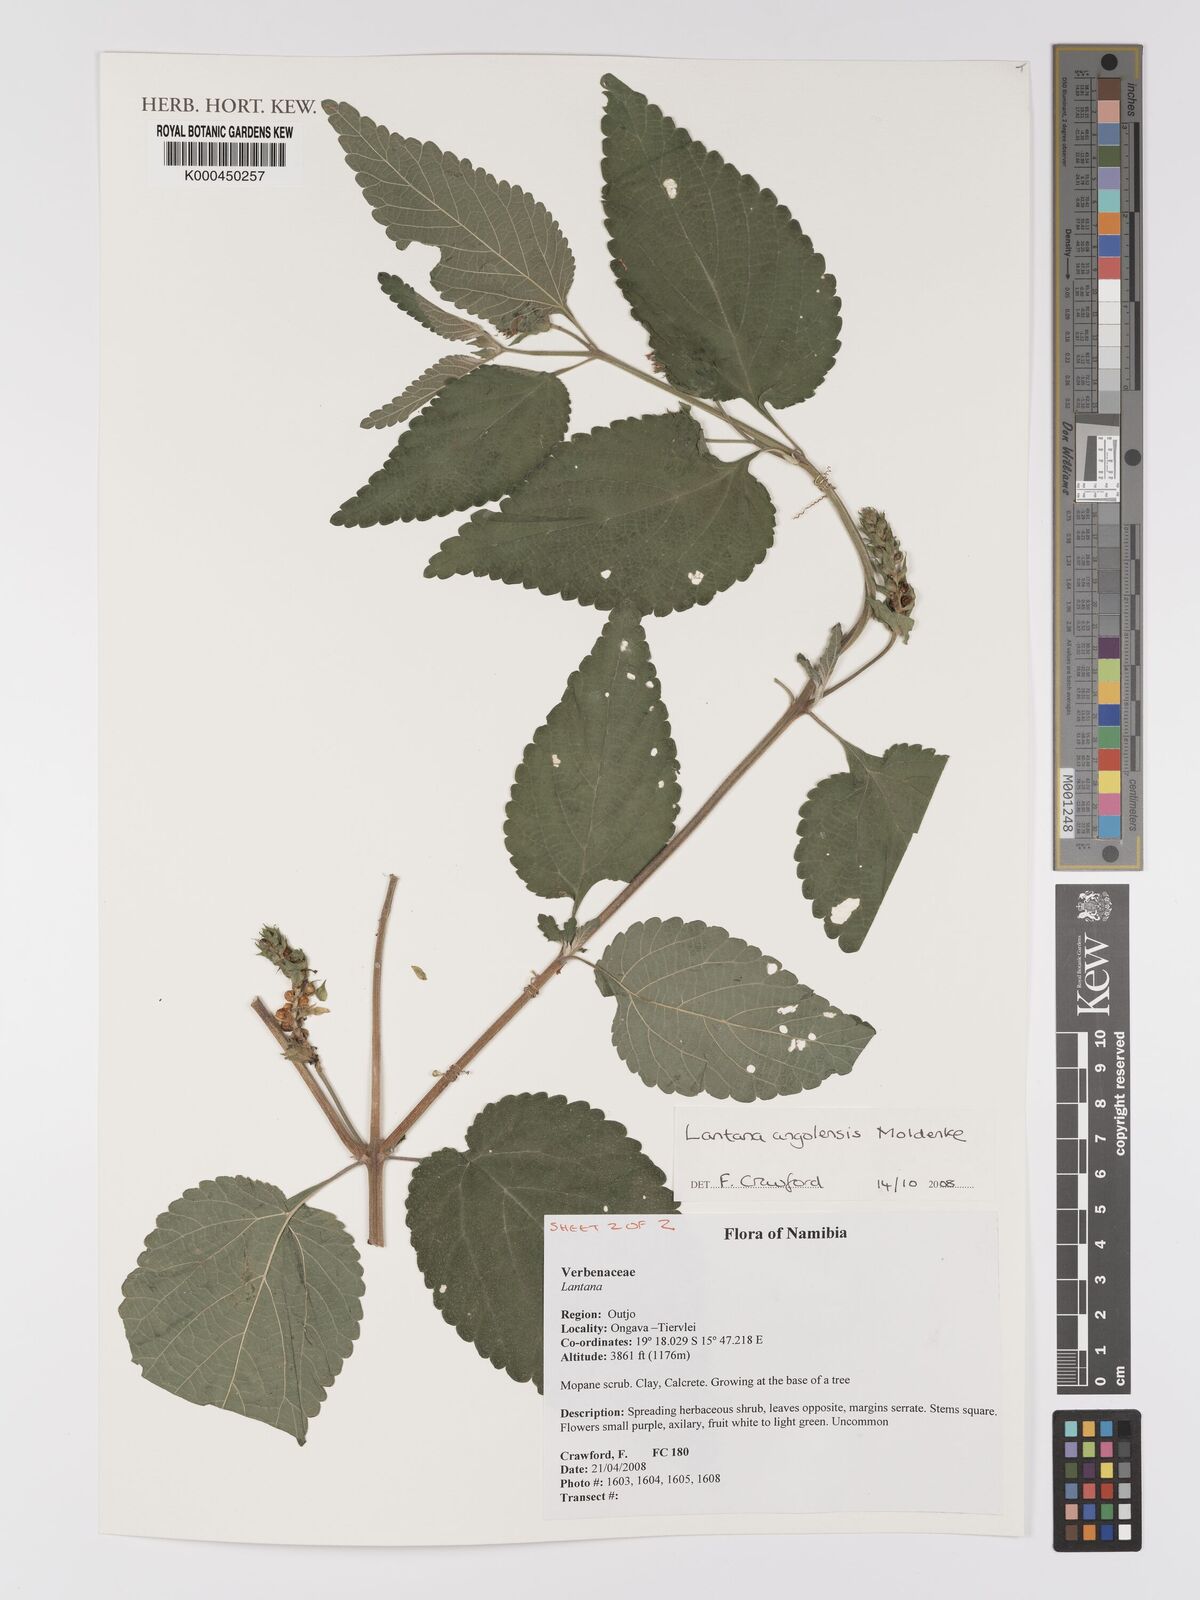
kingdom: Plantae
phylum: Tracheophyta
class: Magnoliopsida
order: Lamiales
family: Verbenaceae
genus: Lantana
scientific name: Lantana angolensis
